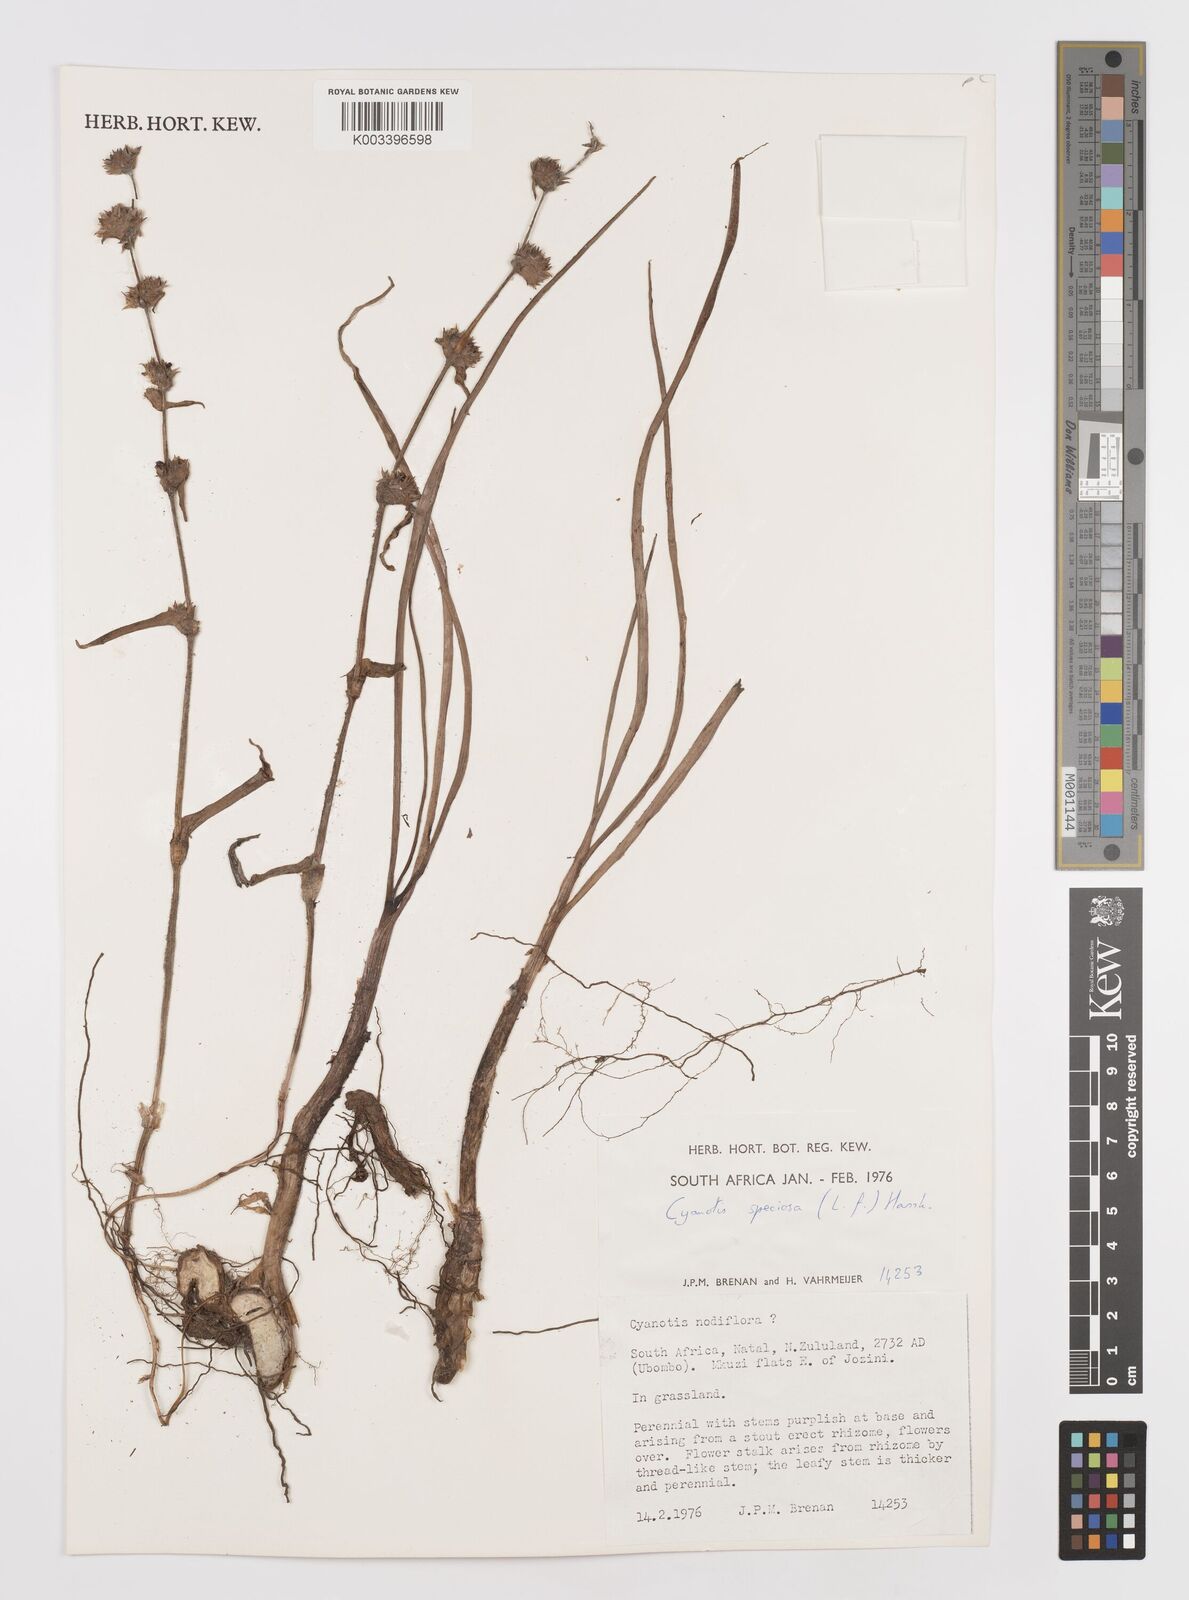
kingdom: Plantae
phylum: Tracheophyta
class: Liliopsida
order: Commelinales
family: Commelinaceae
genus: Cyanotis
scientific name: Cyanotis speciosa
